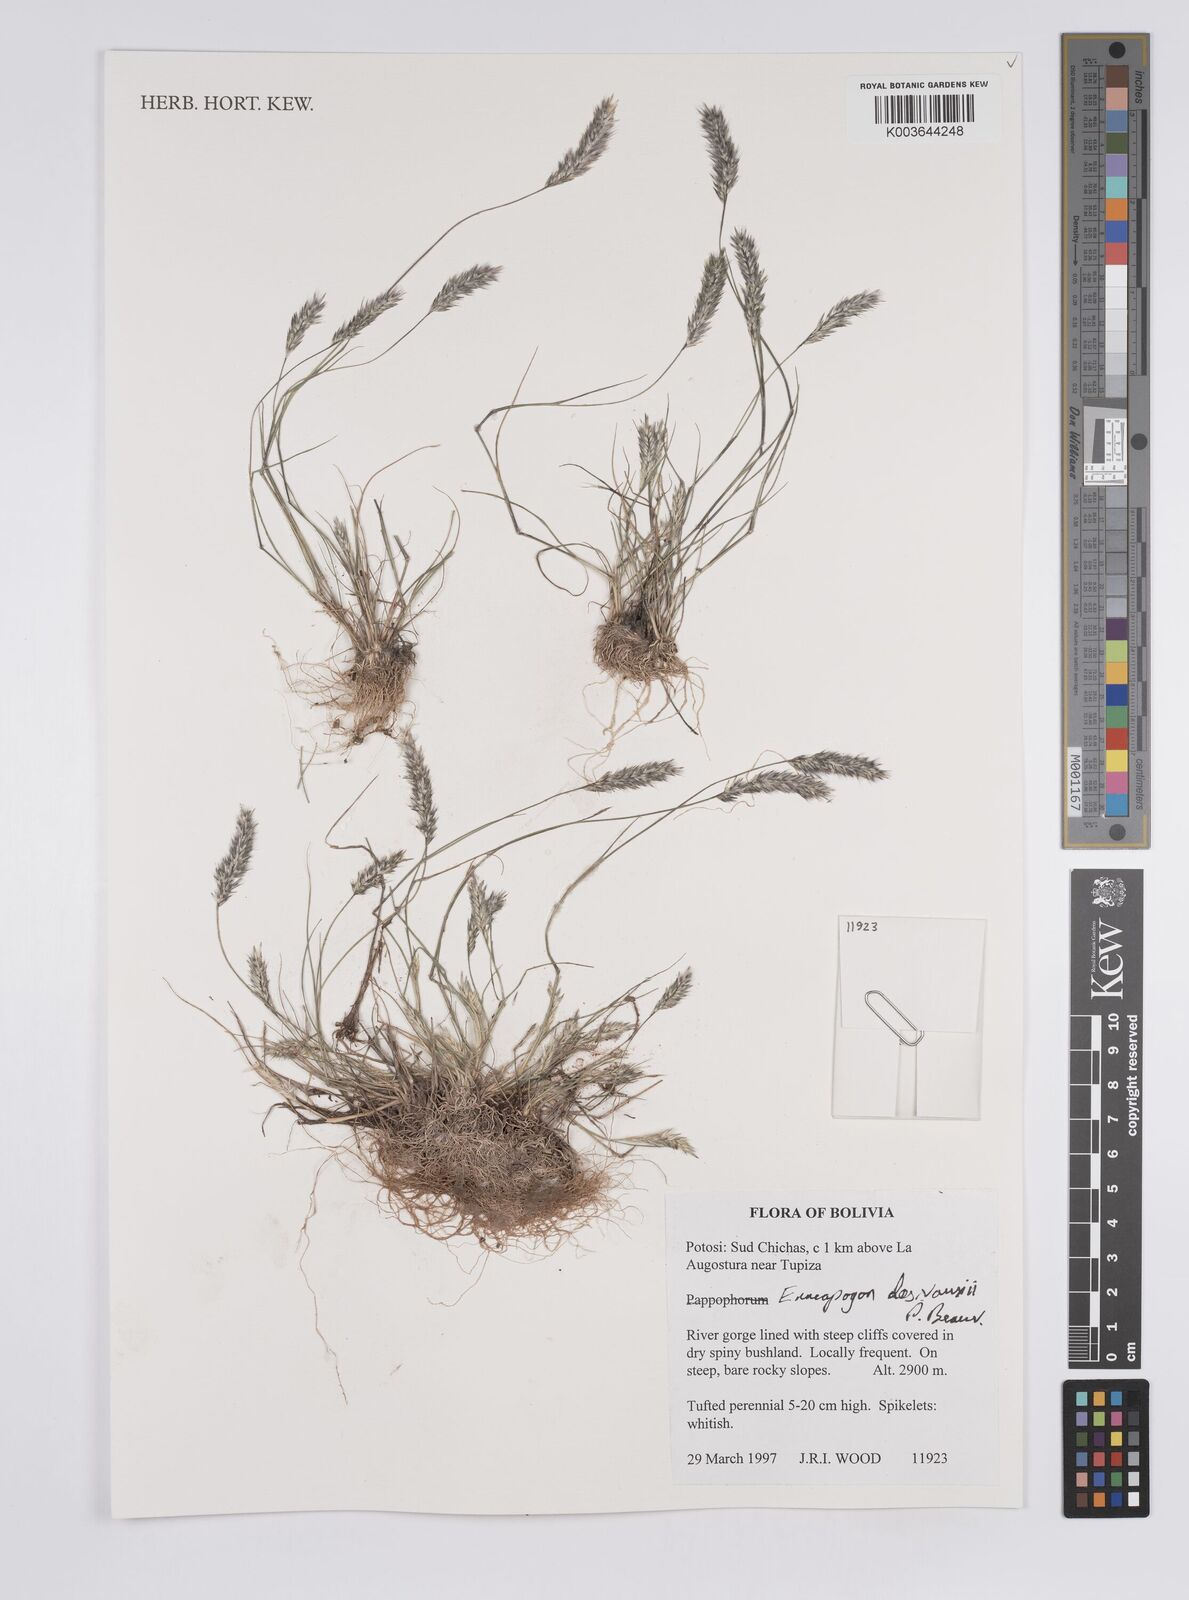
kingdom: Plantae
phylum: Tracheophyta
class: Liliopsida
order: Poales
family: Poaceae
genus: Enneapogon
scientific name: Enneapogon desvauxii
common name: Feather pappus grass
